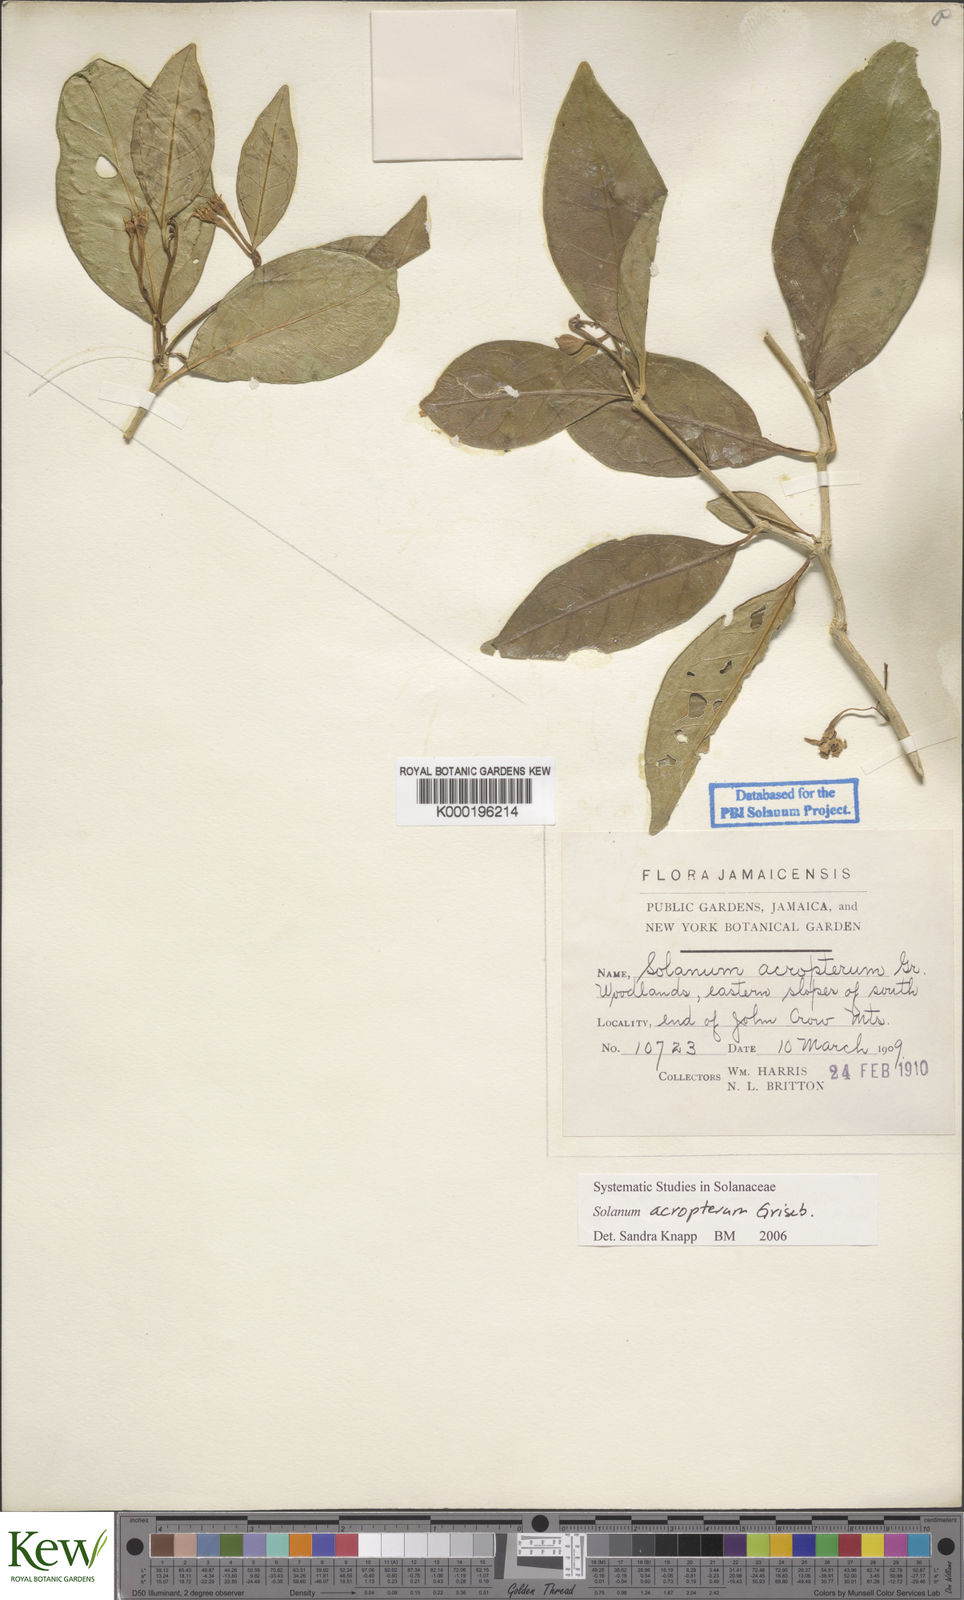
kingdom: Plantae
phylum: Tracheophyta
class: Magnoliopsida
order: Solanales
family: Solanaceae
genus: Solanum
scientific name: Solanum acropterum
